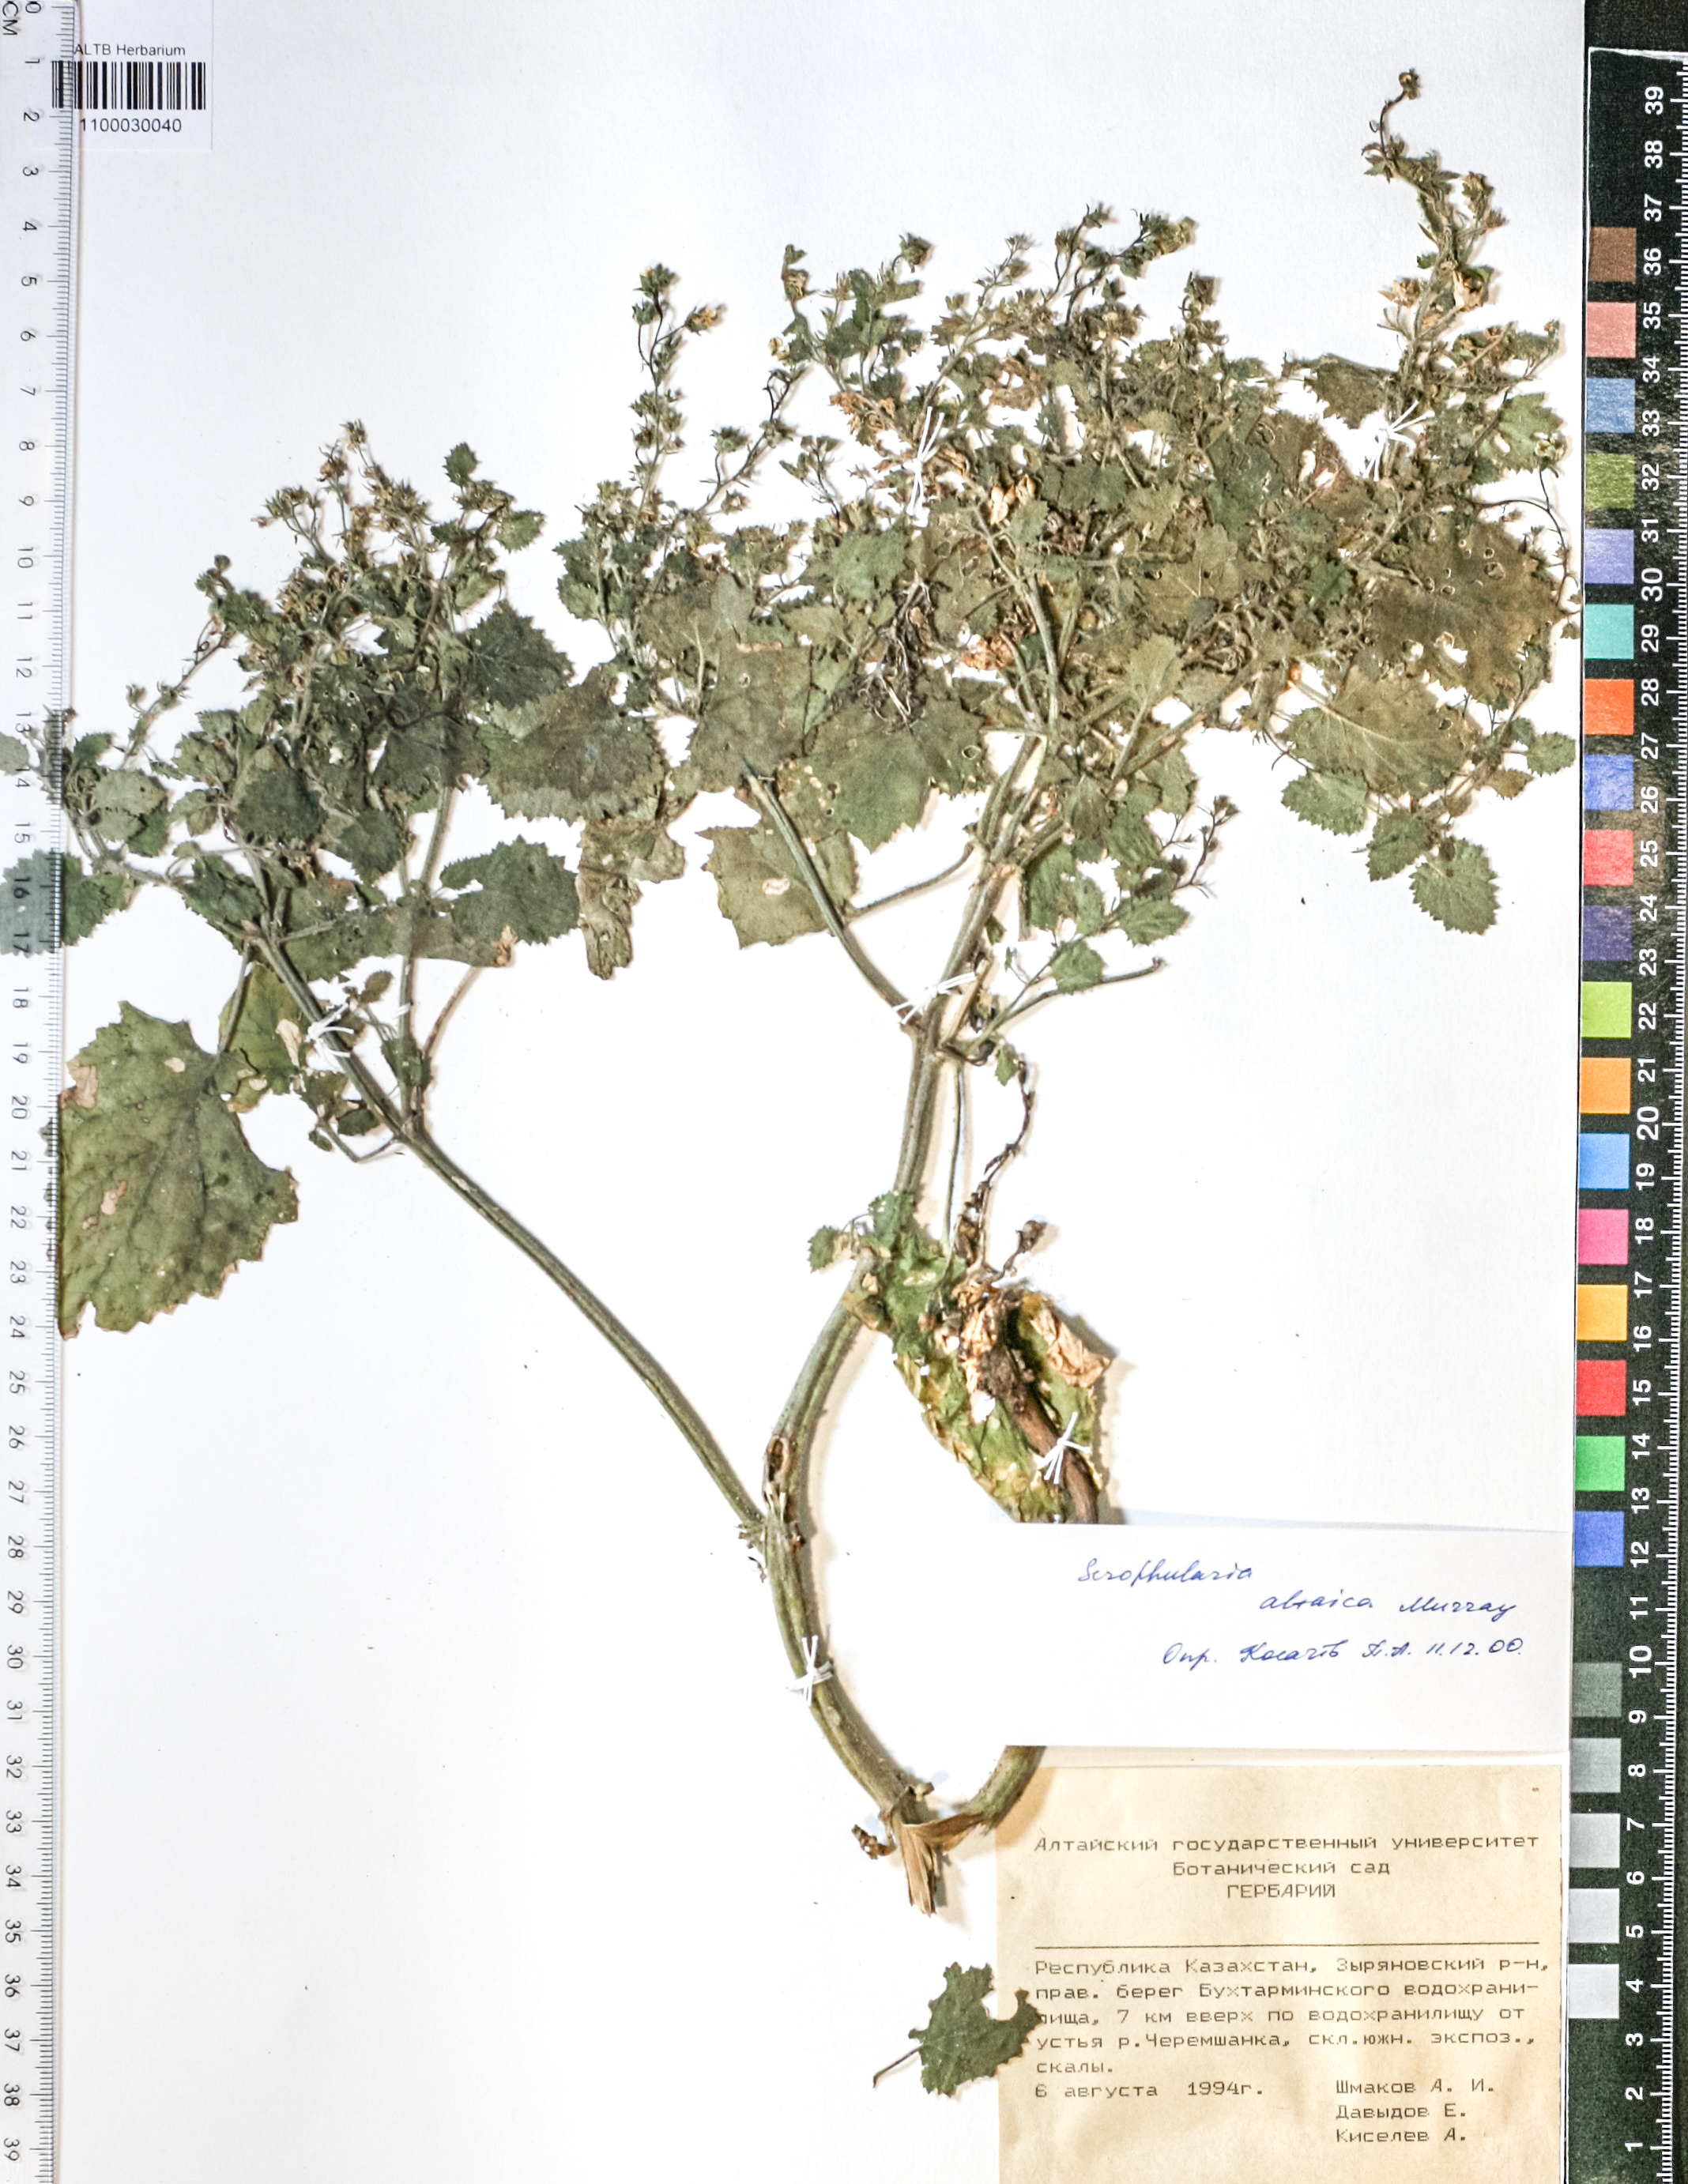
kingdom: Plantae
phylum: Tracheophyta
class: Magnoliopsida
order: Lamiales
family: Scrophulariaceae
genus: Scrophularia
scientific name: Scrophularia altaica
